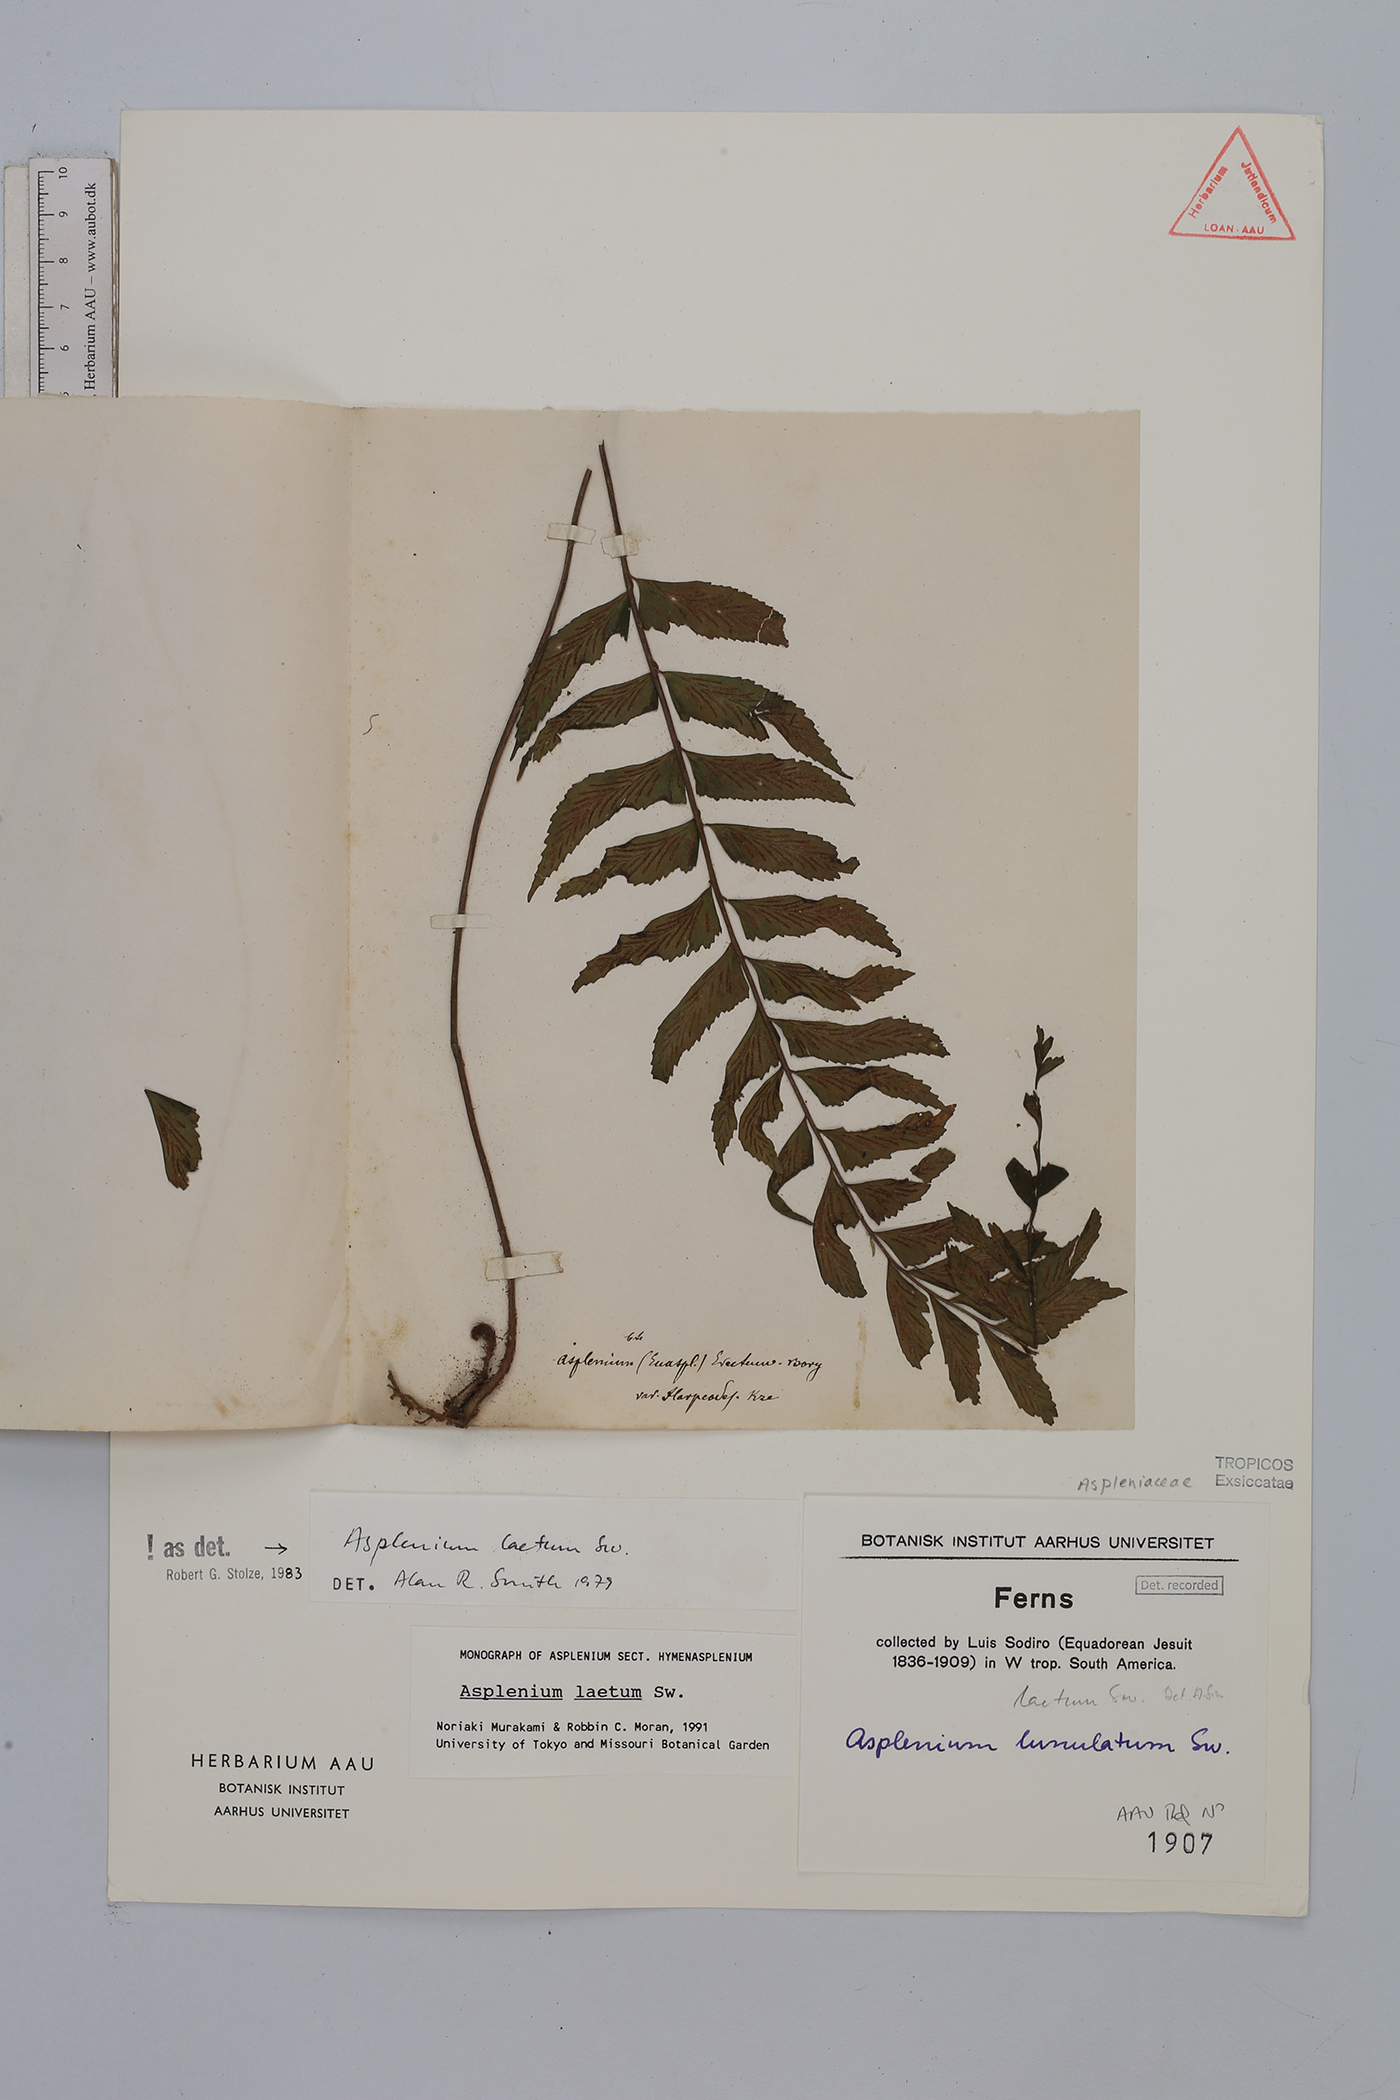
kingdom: Plantae
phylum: Tracheophyta
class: Polypodiopsida
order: Polypodiales
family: Aspleniaceae
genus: Hymenasplenium
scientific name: Hymenasplenium laetum
